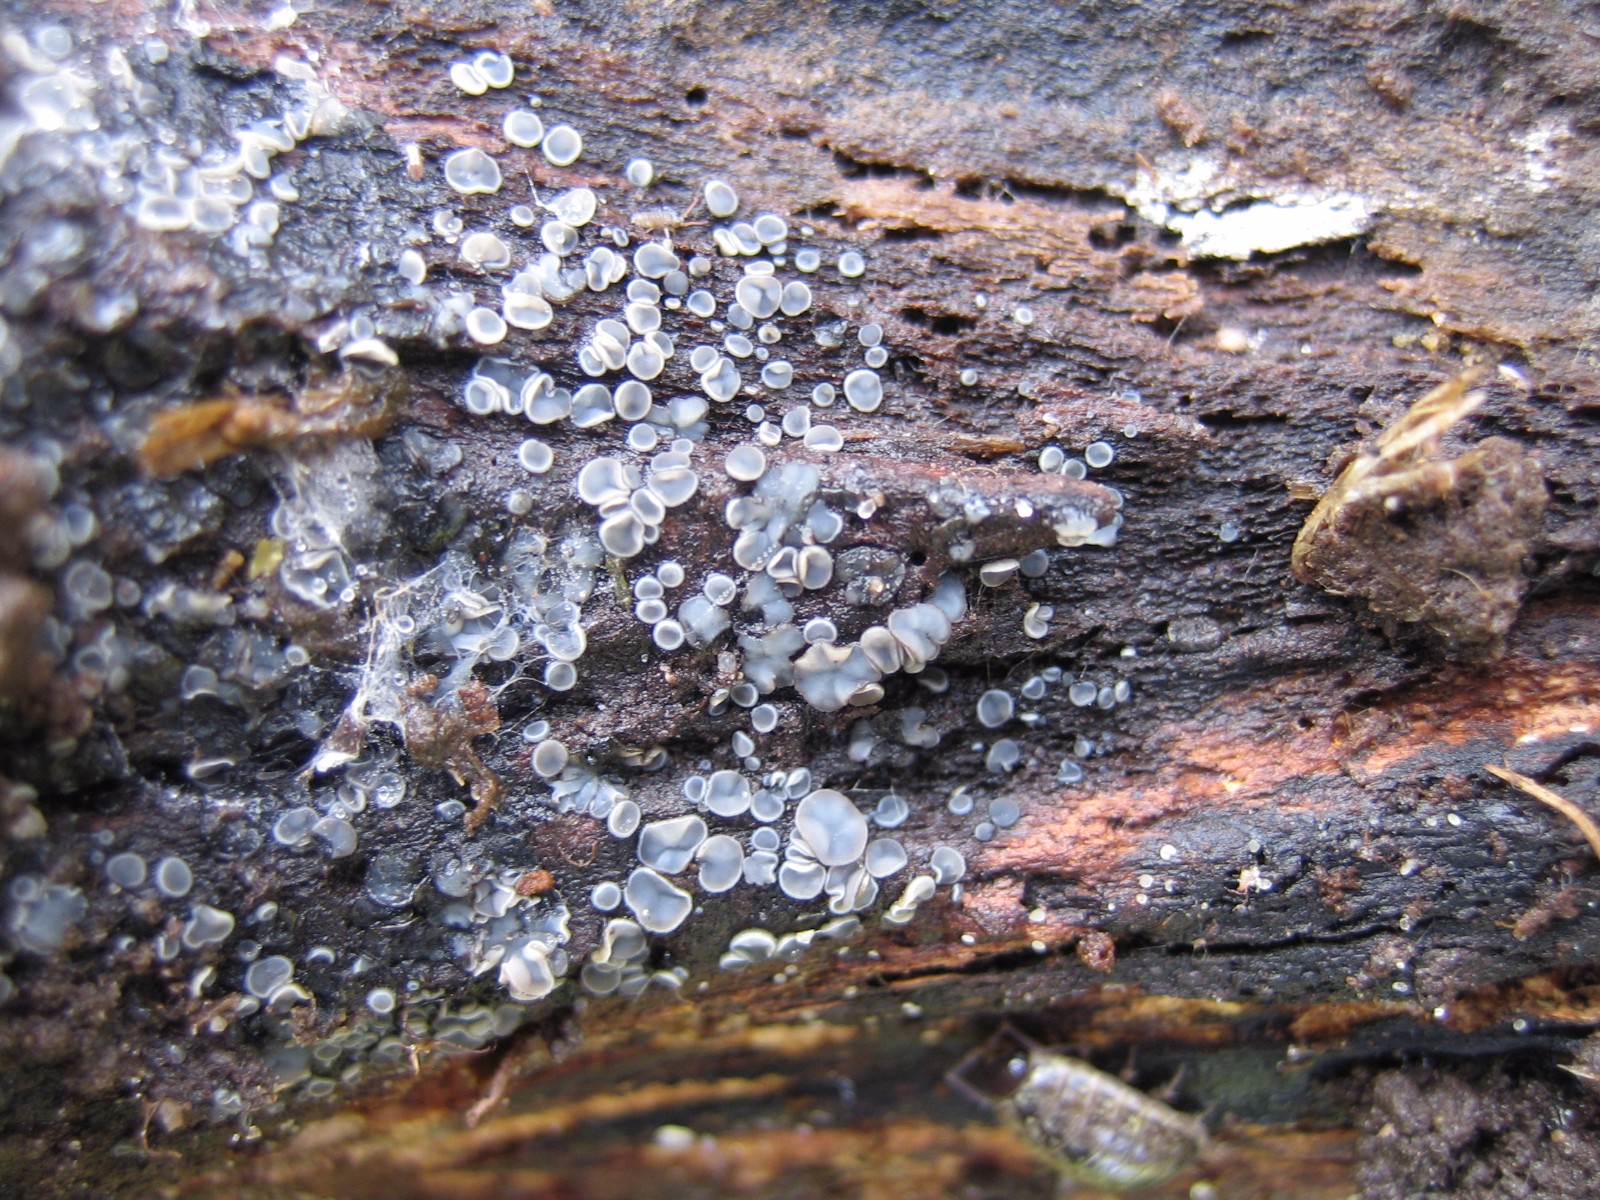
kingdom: Fungi
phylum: Ascomycota
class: Leotiomycetes
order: Helotiales
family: Mollisiaceae
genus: Mollisia
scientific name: Mollisia
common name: gråskive
